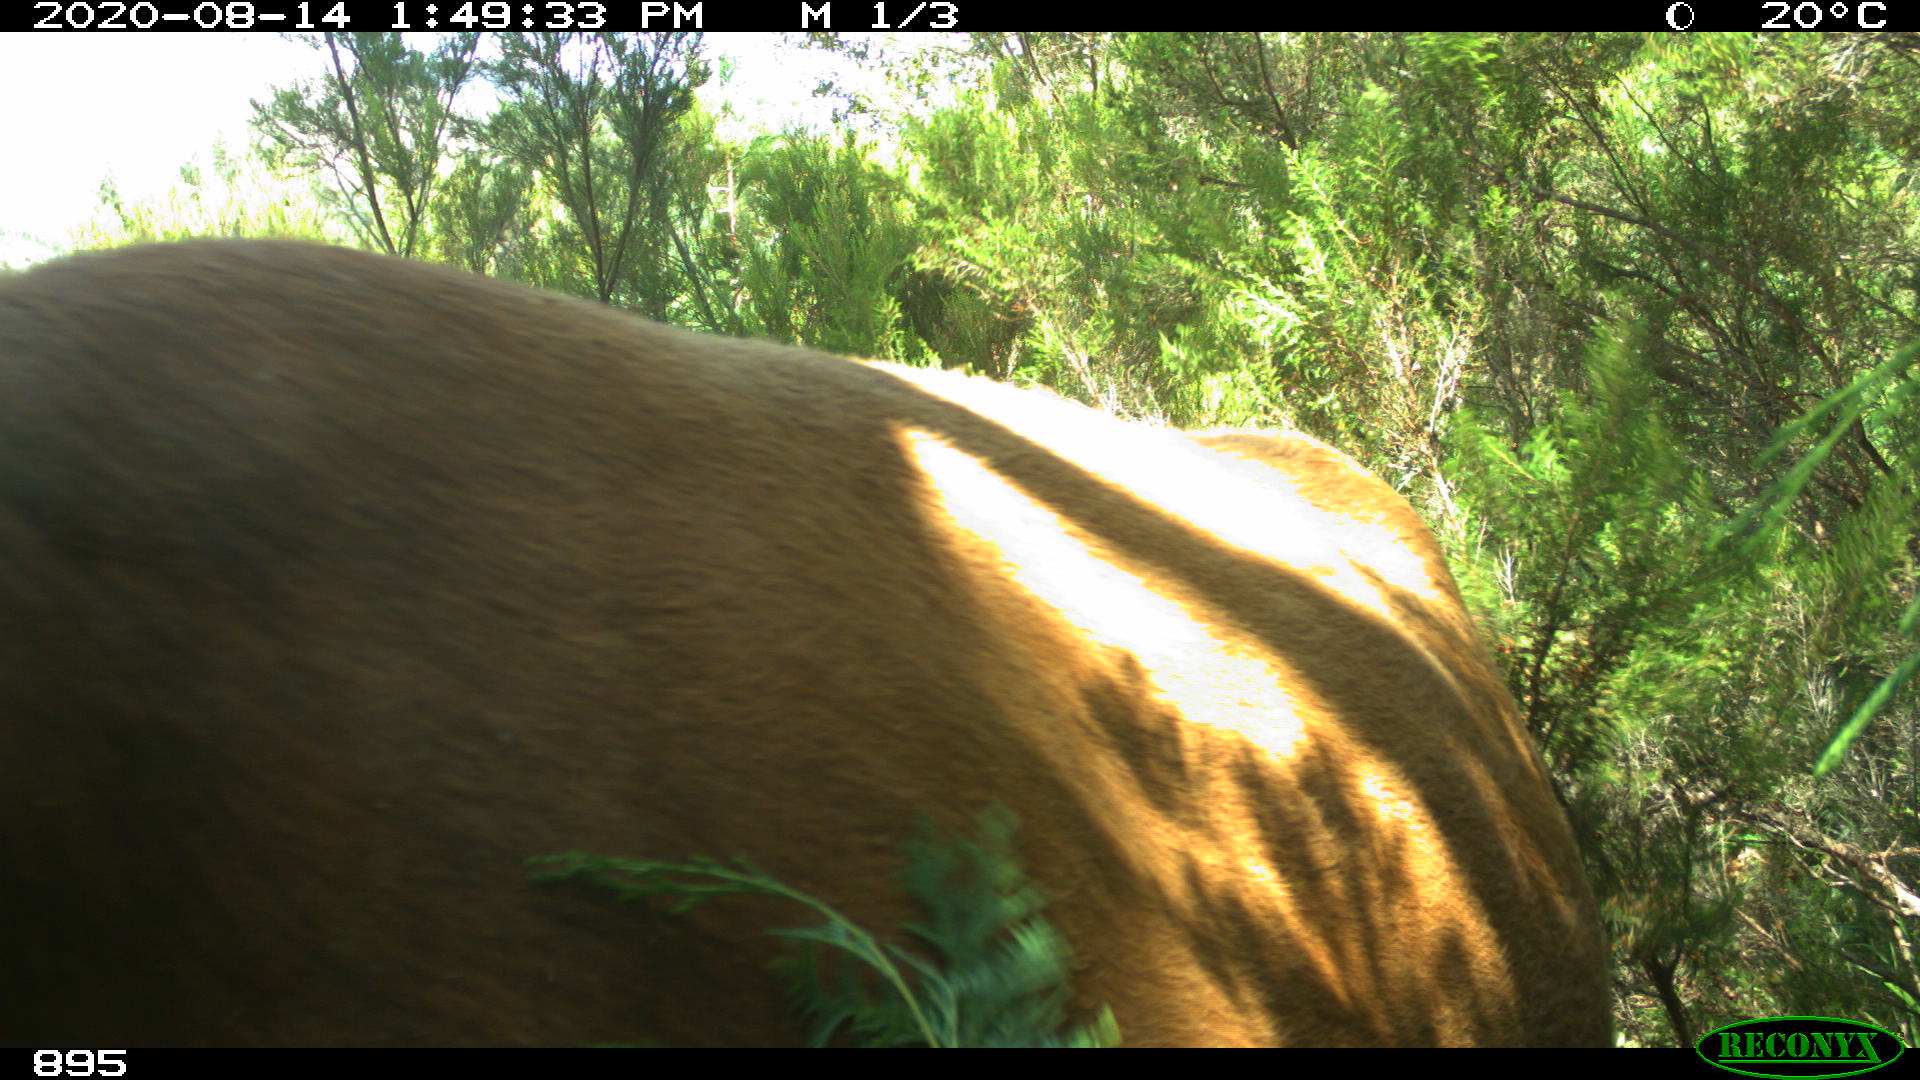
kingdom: Animalia
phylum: Chordata
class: Mammalia
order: Artiodactyla
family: Bovidae
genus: Bos
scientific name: Bos taurus
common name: Domesticated cattle
